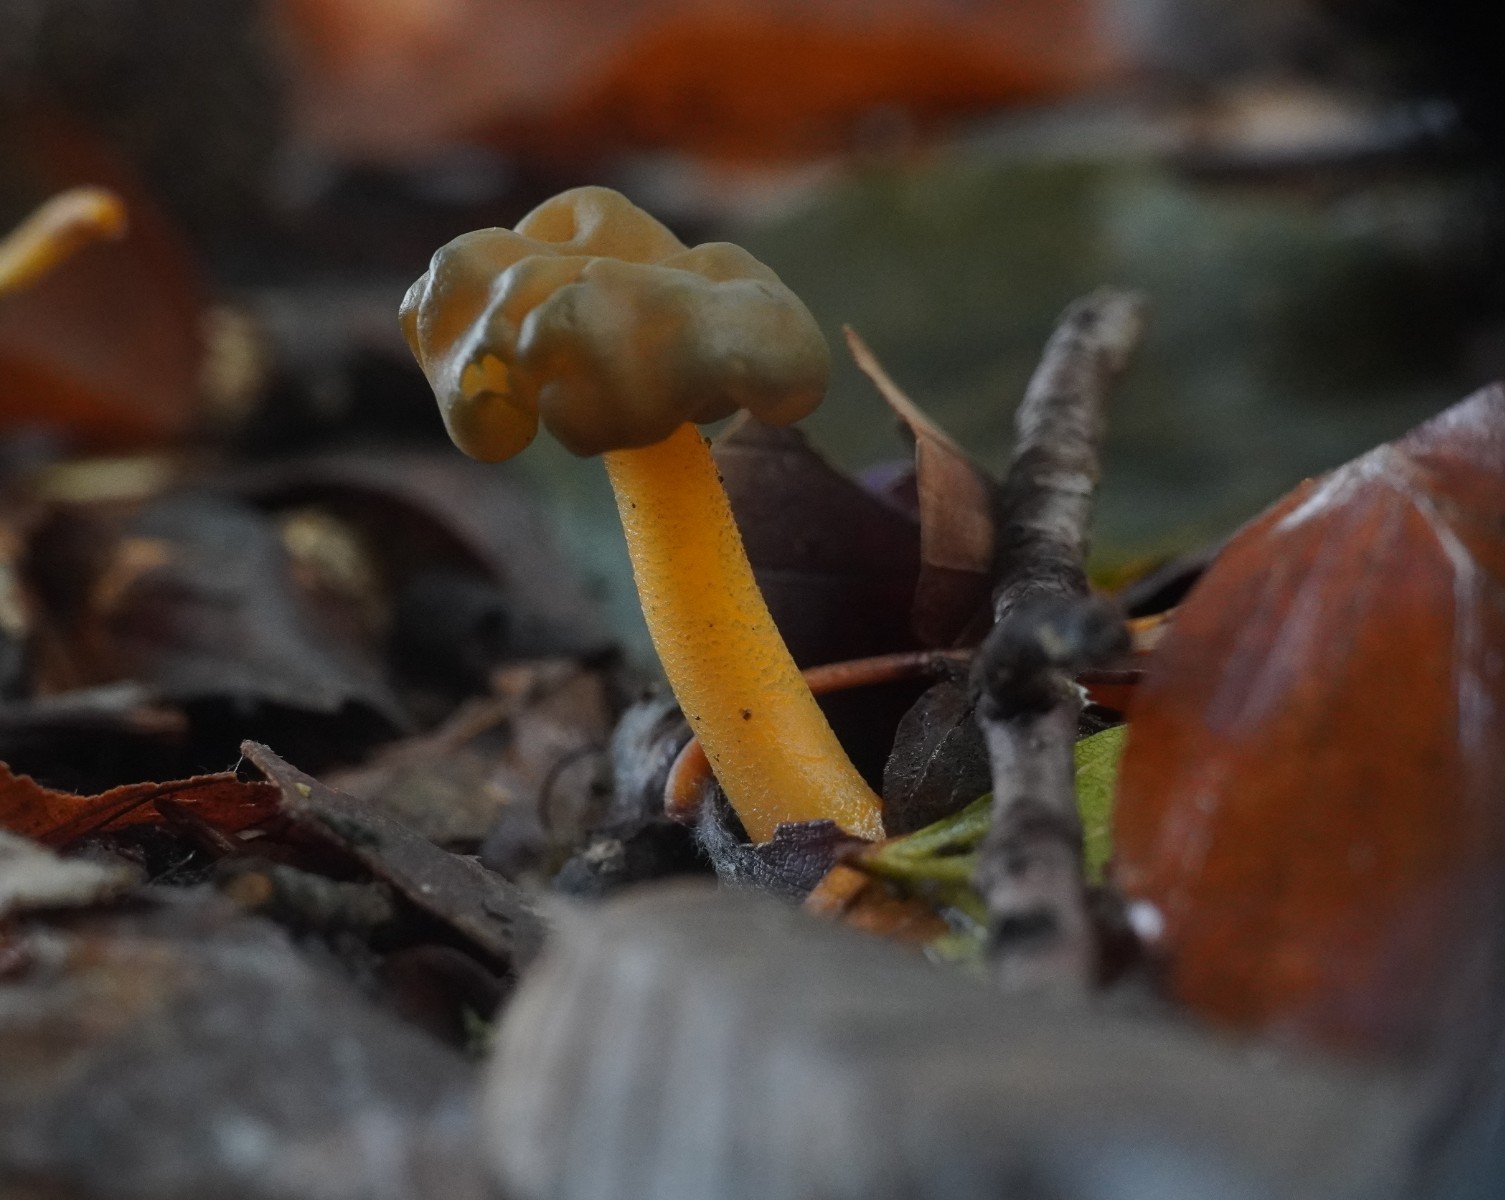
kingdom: Fungi
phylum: Ascomycota
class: Leotiomycetes
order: Leotiales
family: Leotiaceae
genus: Leotia
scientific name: Leotia lubrica
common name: ravsvamp
